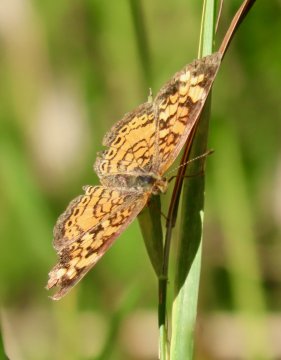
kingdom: Animalia
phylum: Arthropoda
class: Insecta
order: Lepidoptera
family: Nymphalidae
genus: Phyciodes
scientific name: Phyciodes tharos
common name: Pearl Crescent
